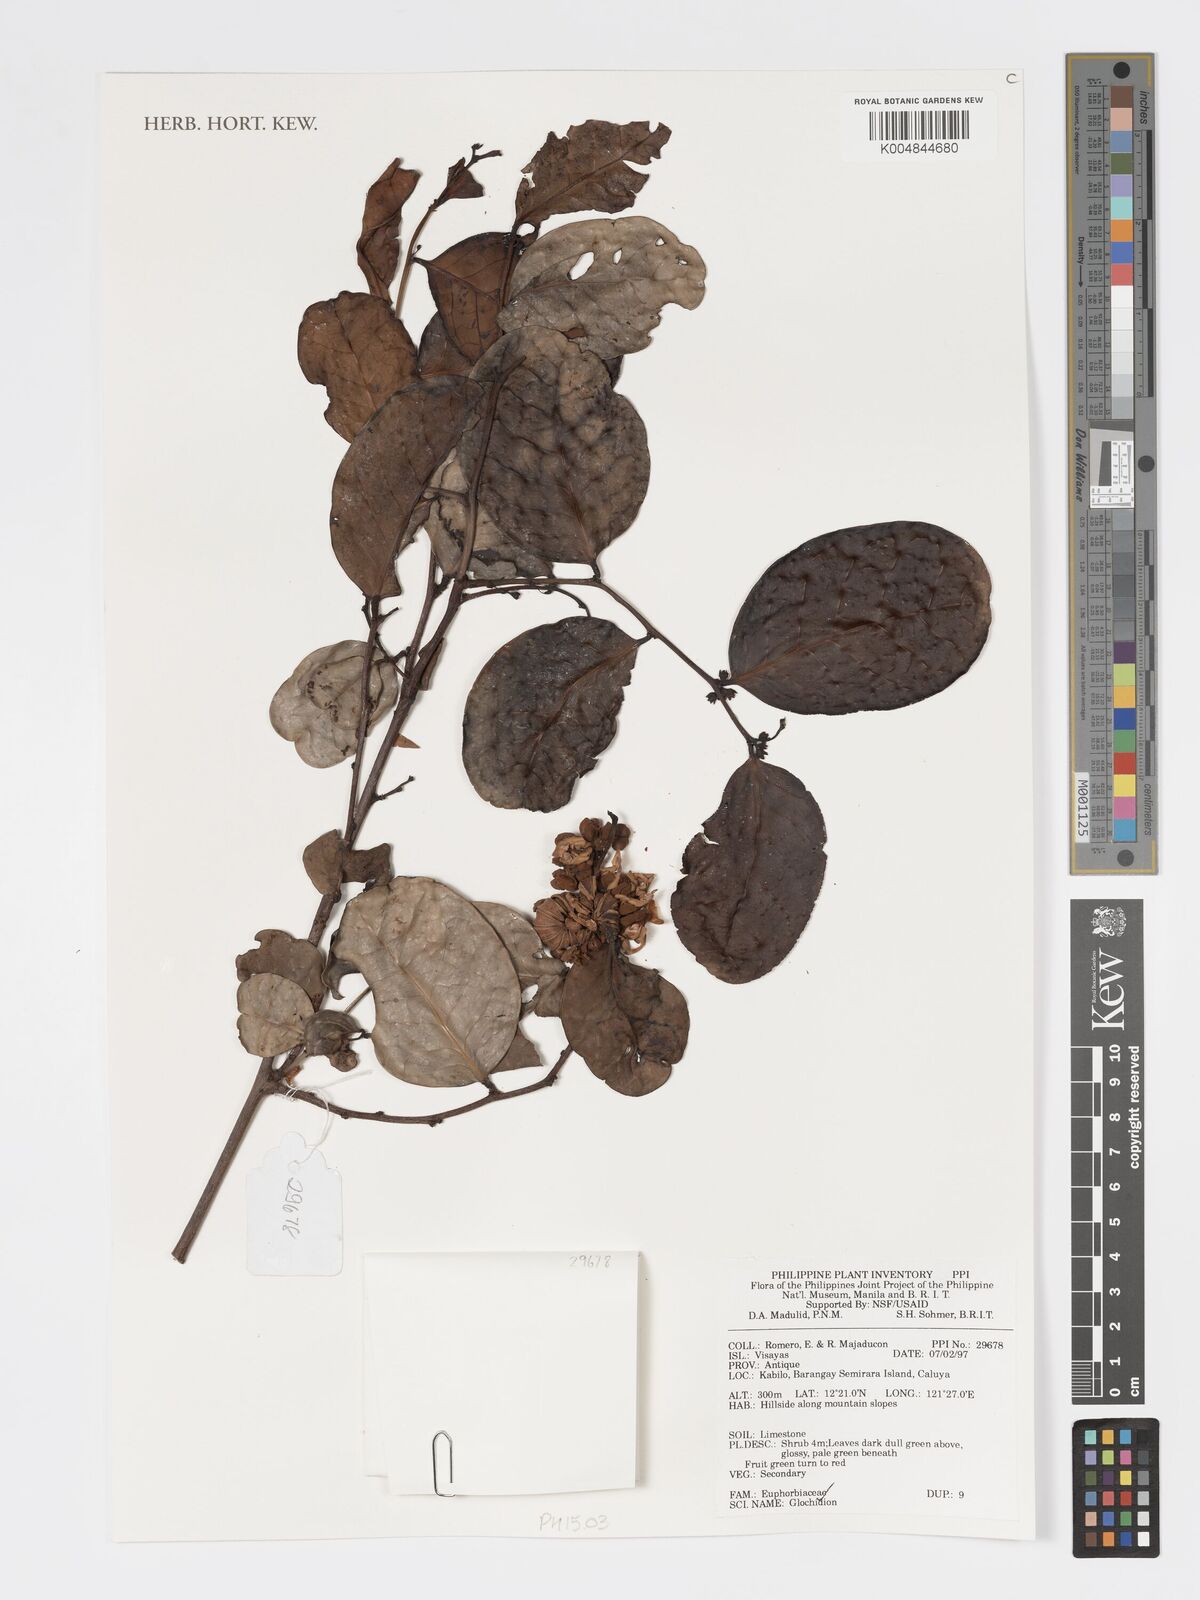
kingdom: Plantae
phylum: Tracheophyta
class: Magnoliopsida
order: Malpighiales
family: Phyllanthaceae
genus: Glochidion
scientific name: Glochidion
